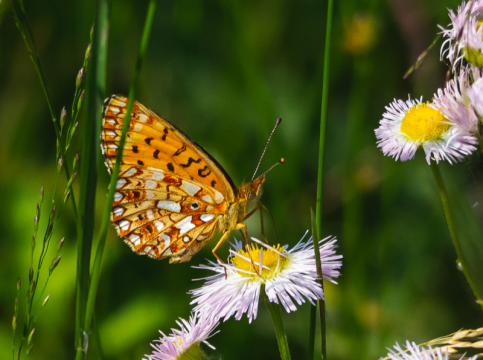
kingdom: Animalia
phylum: Arthropoda
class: Insecta
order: Lepidoptera
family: Nymphalidae
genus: Boloria
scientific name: Boloria selene
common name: Silver-bordered Fritillary
